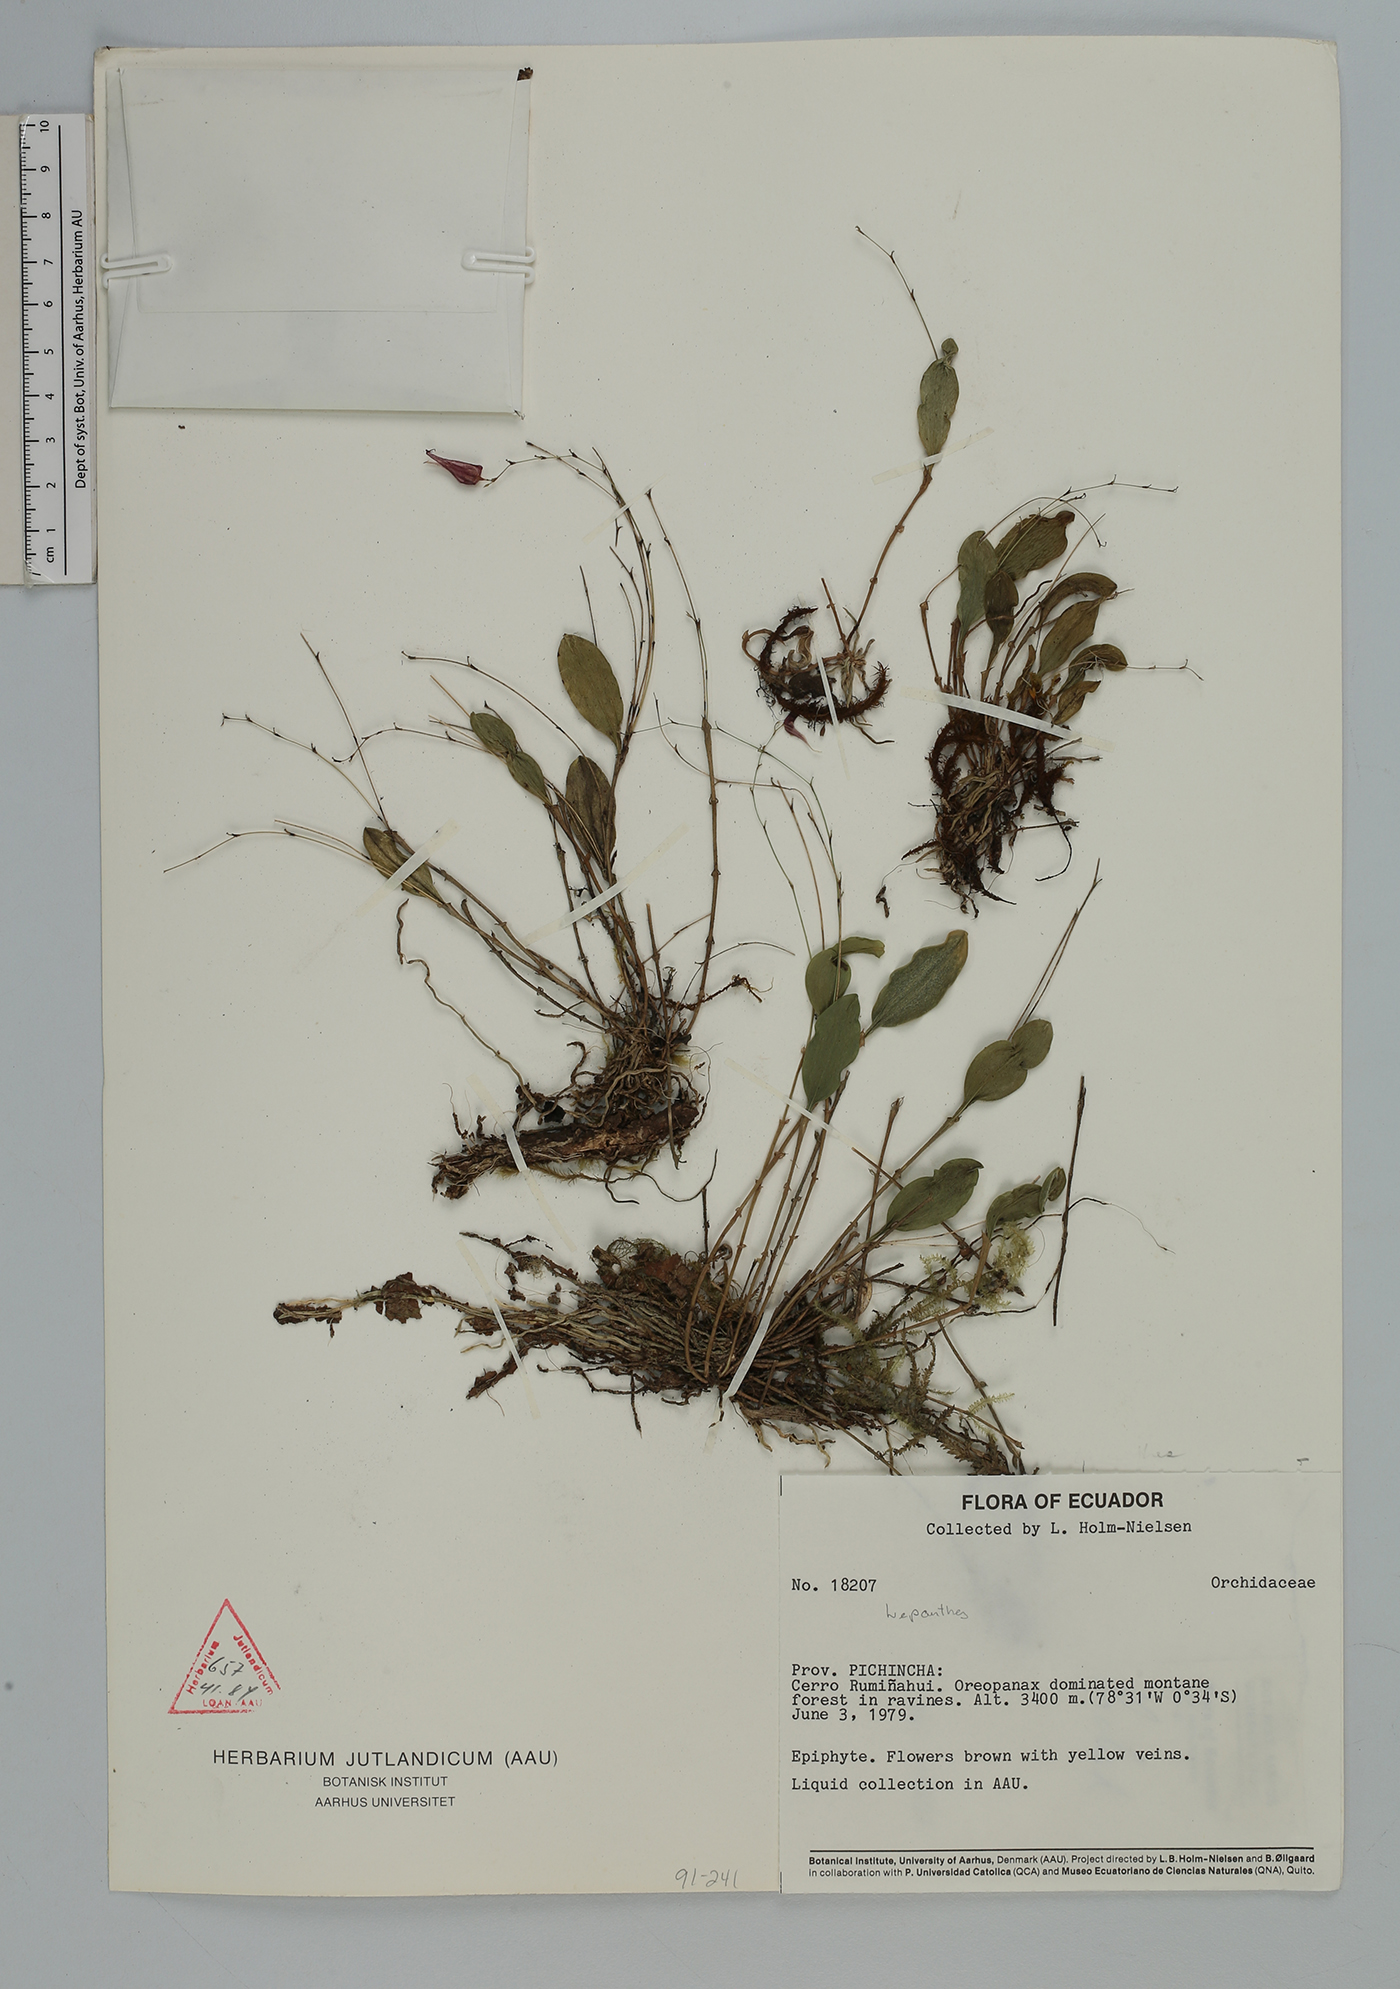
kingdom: Plantae
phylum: Tracheophyta
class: Liliopsida
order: Asparagales
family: Orchidaceae
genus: Lepanthes
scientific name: Lepanthes
